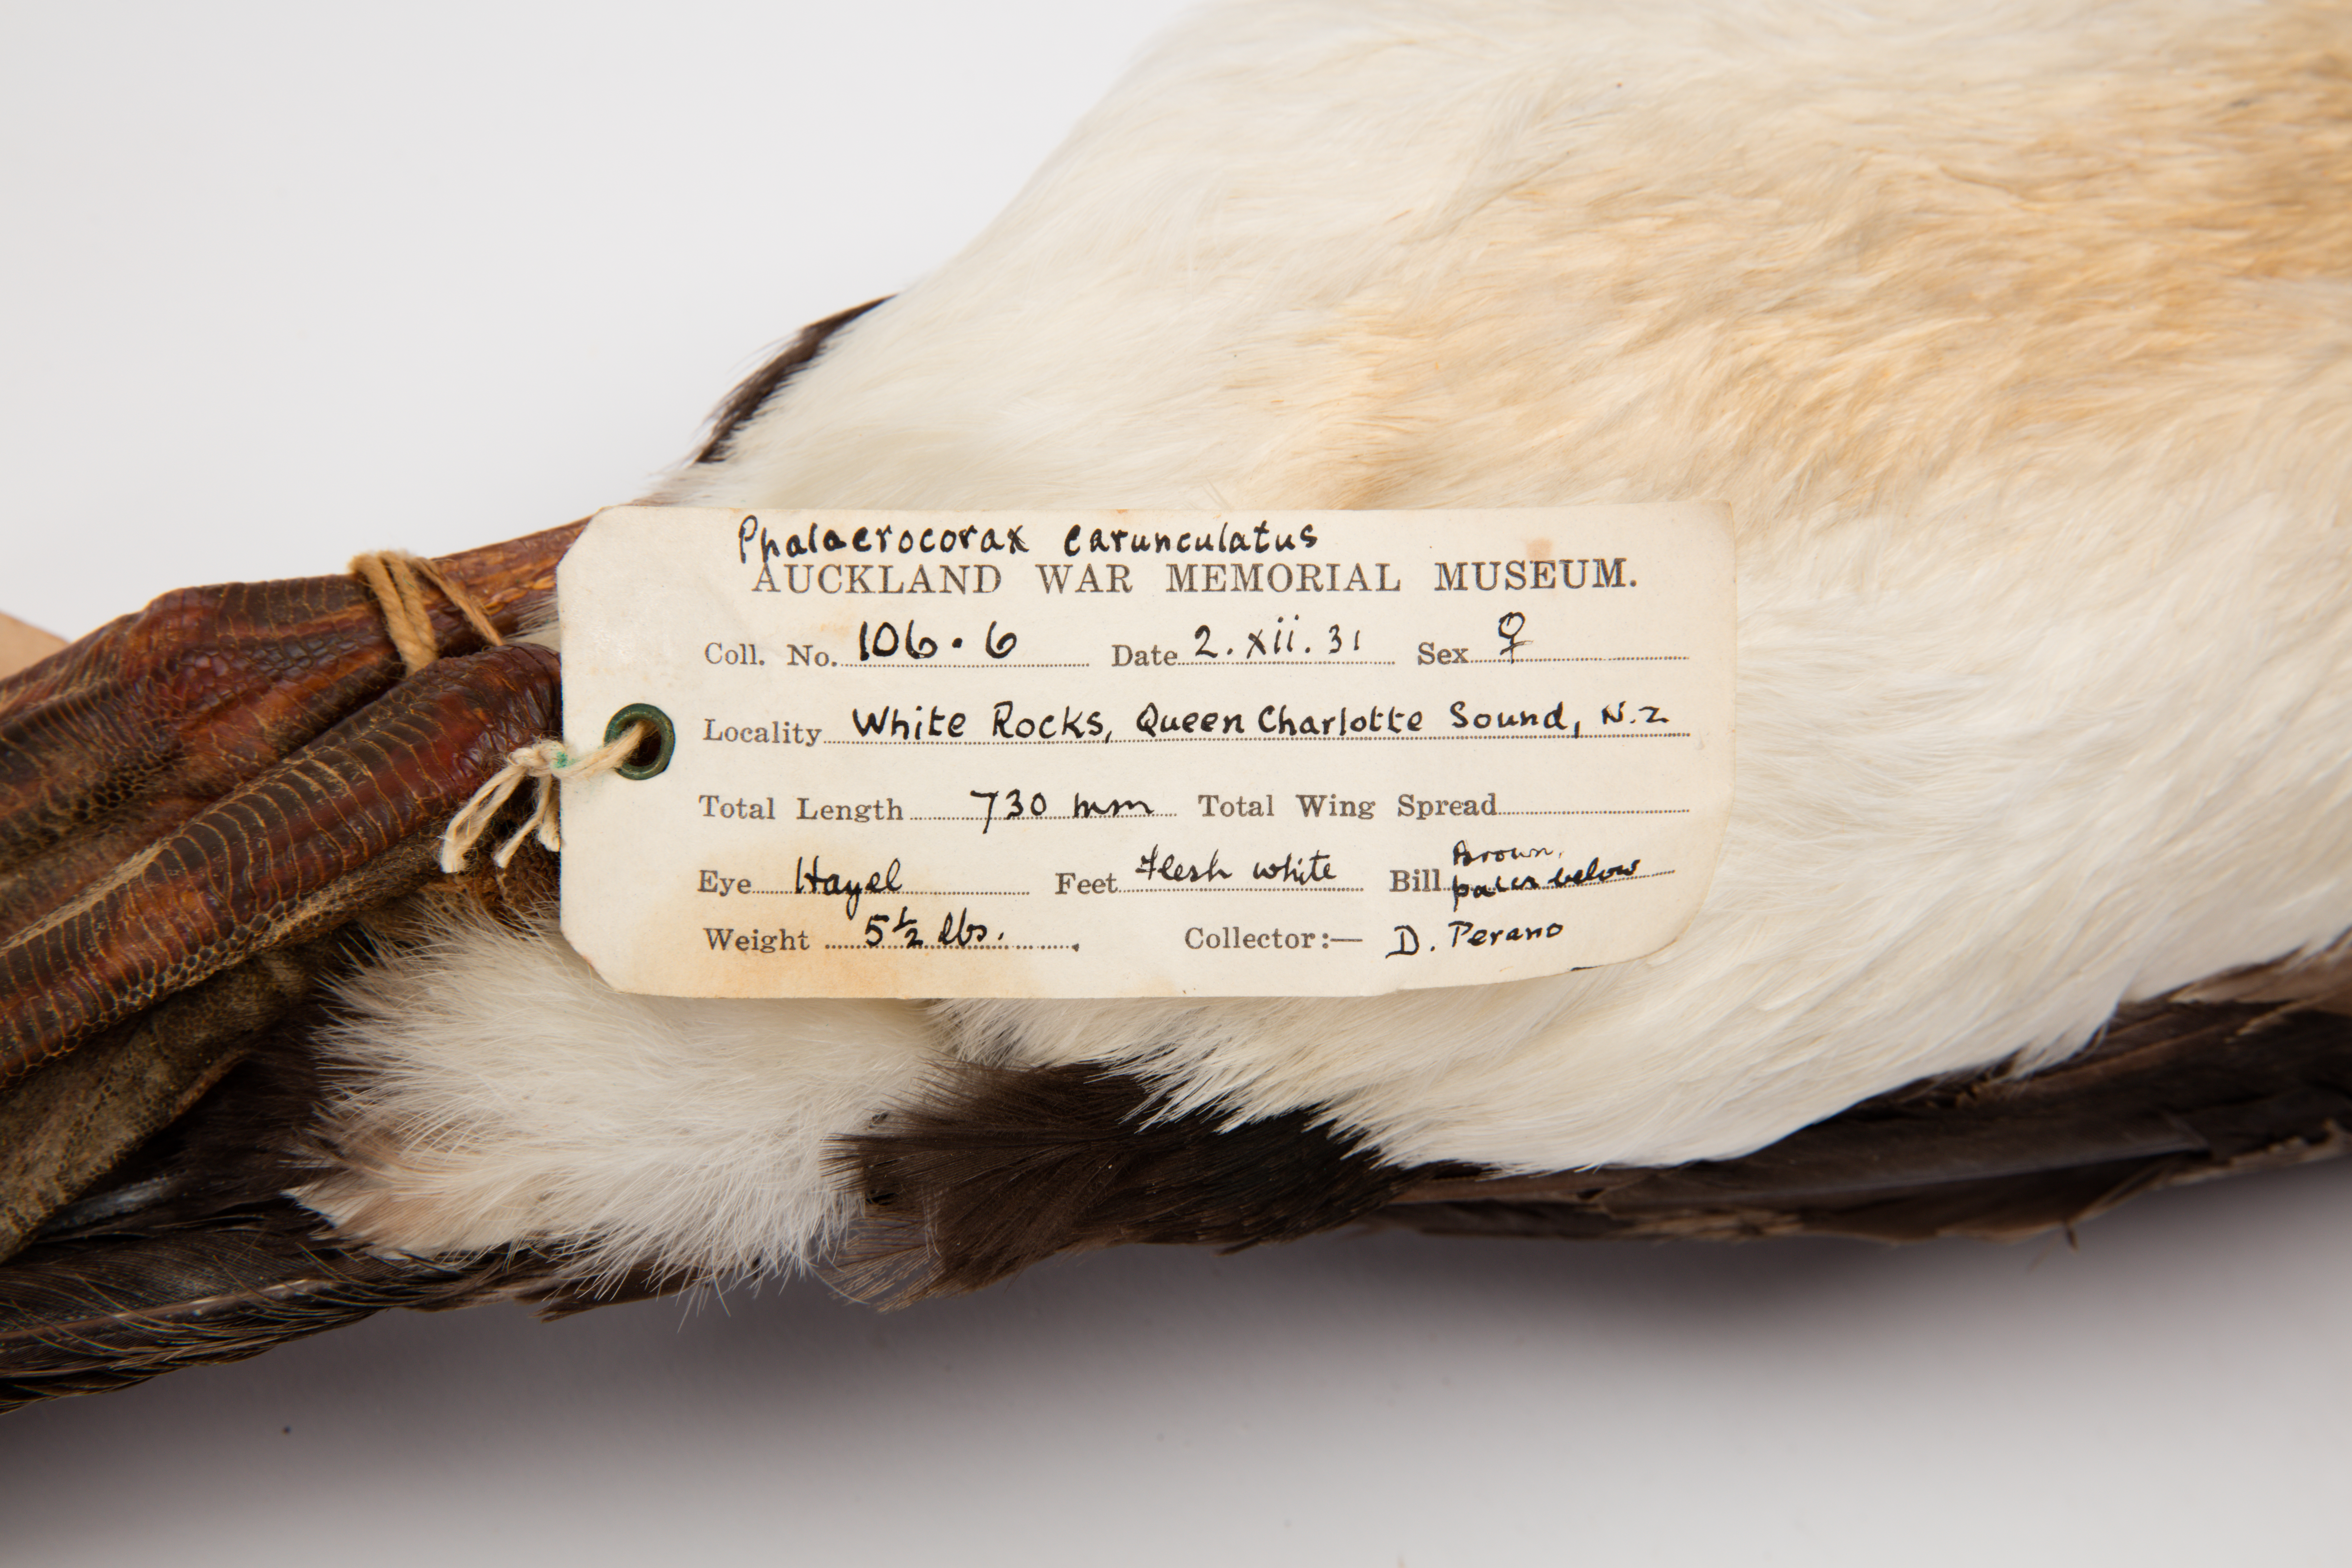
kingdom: Animalia
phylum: Chordata
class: Aves
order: Suliformes
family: Phalacrocoracidae
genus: Leucocarbo
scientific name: Leucocarbo carunculatus
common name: Rough-faced shag
